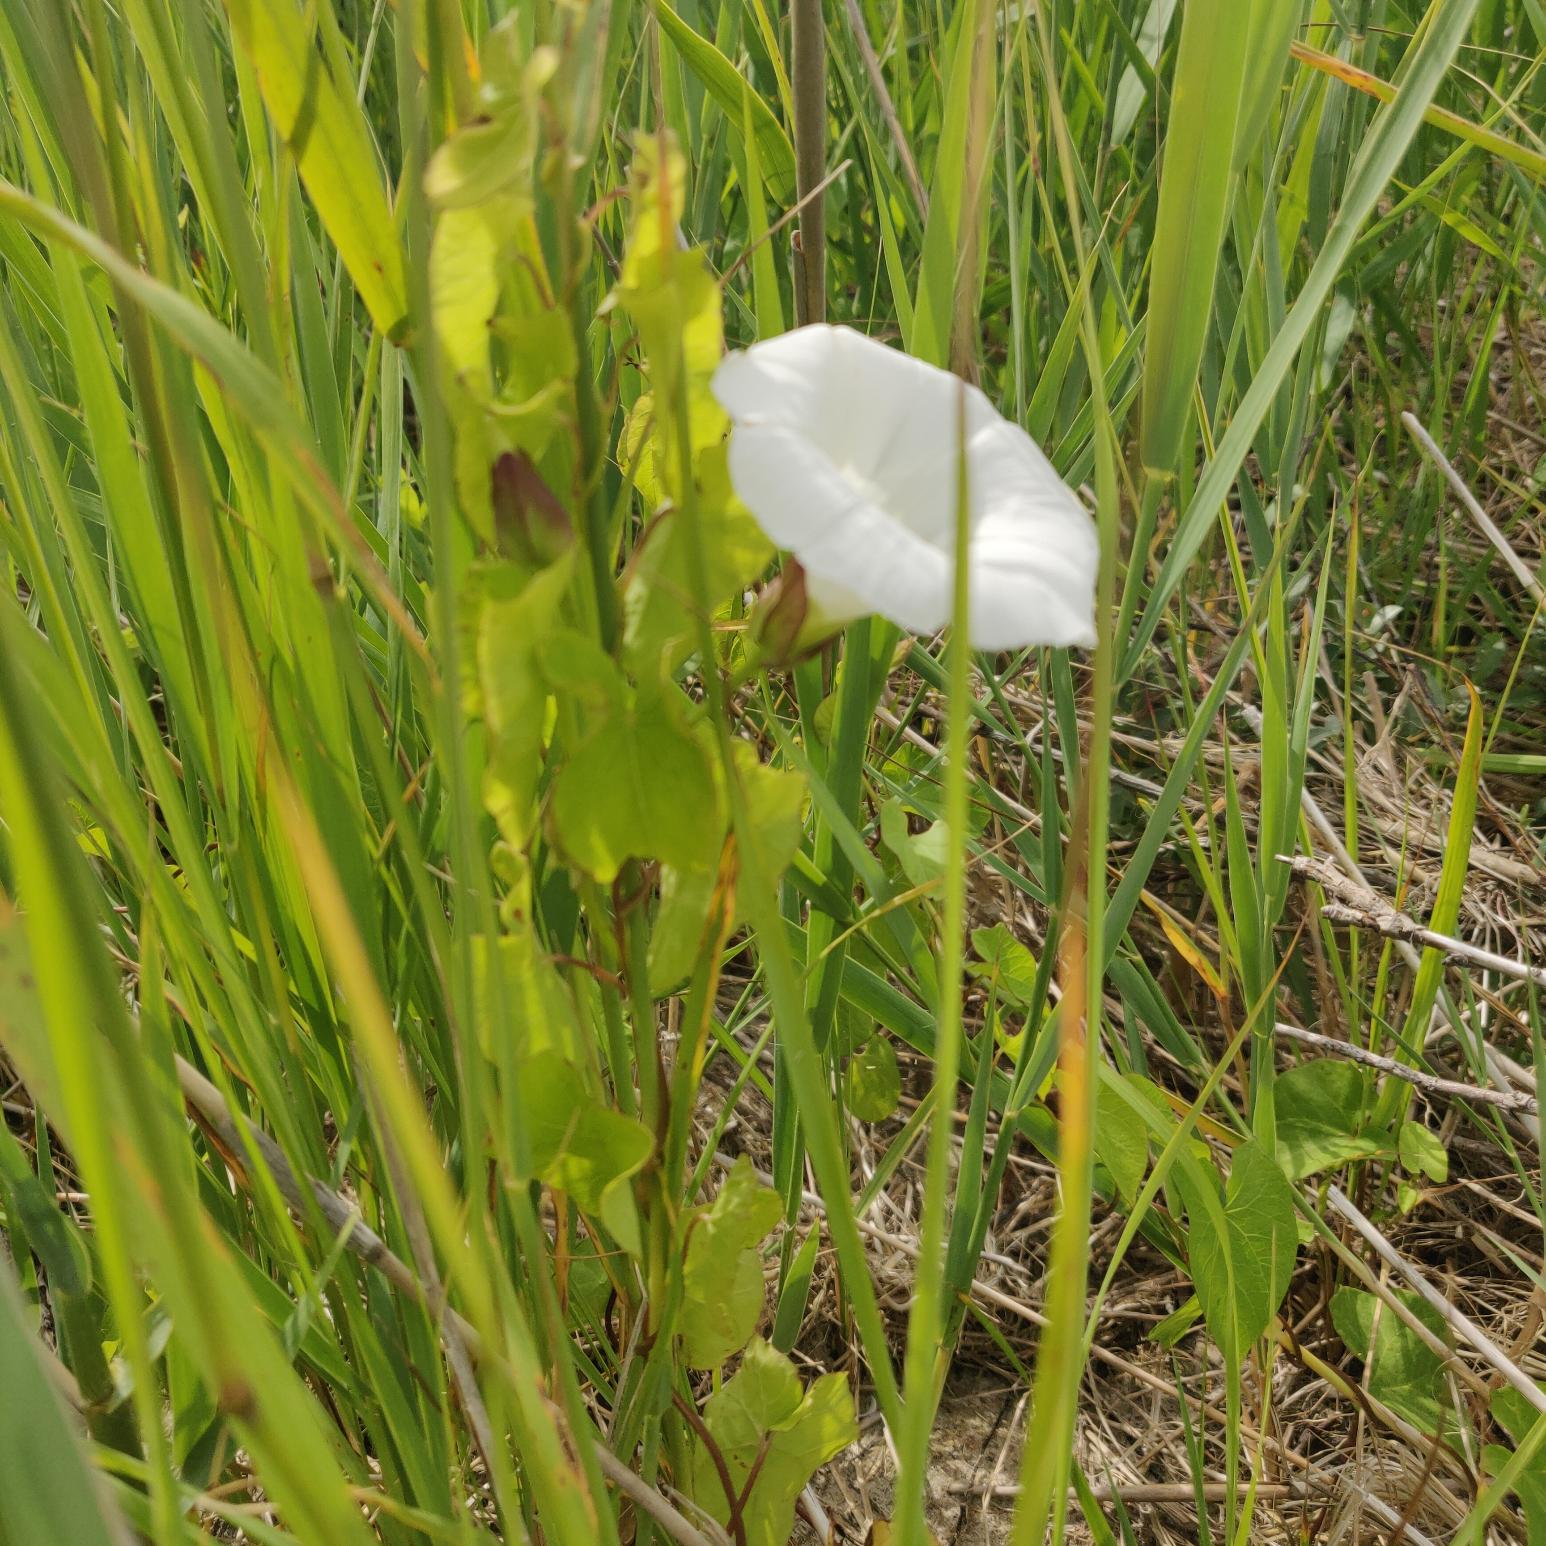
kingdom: Plantae
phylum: Tracheophyta
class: Magnoliopsida
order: Solanales
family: Convolvulaceae
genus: Calystegia
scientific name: Calystegia sepium
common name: Gærde-snerle
